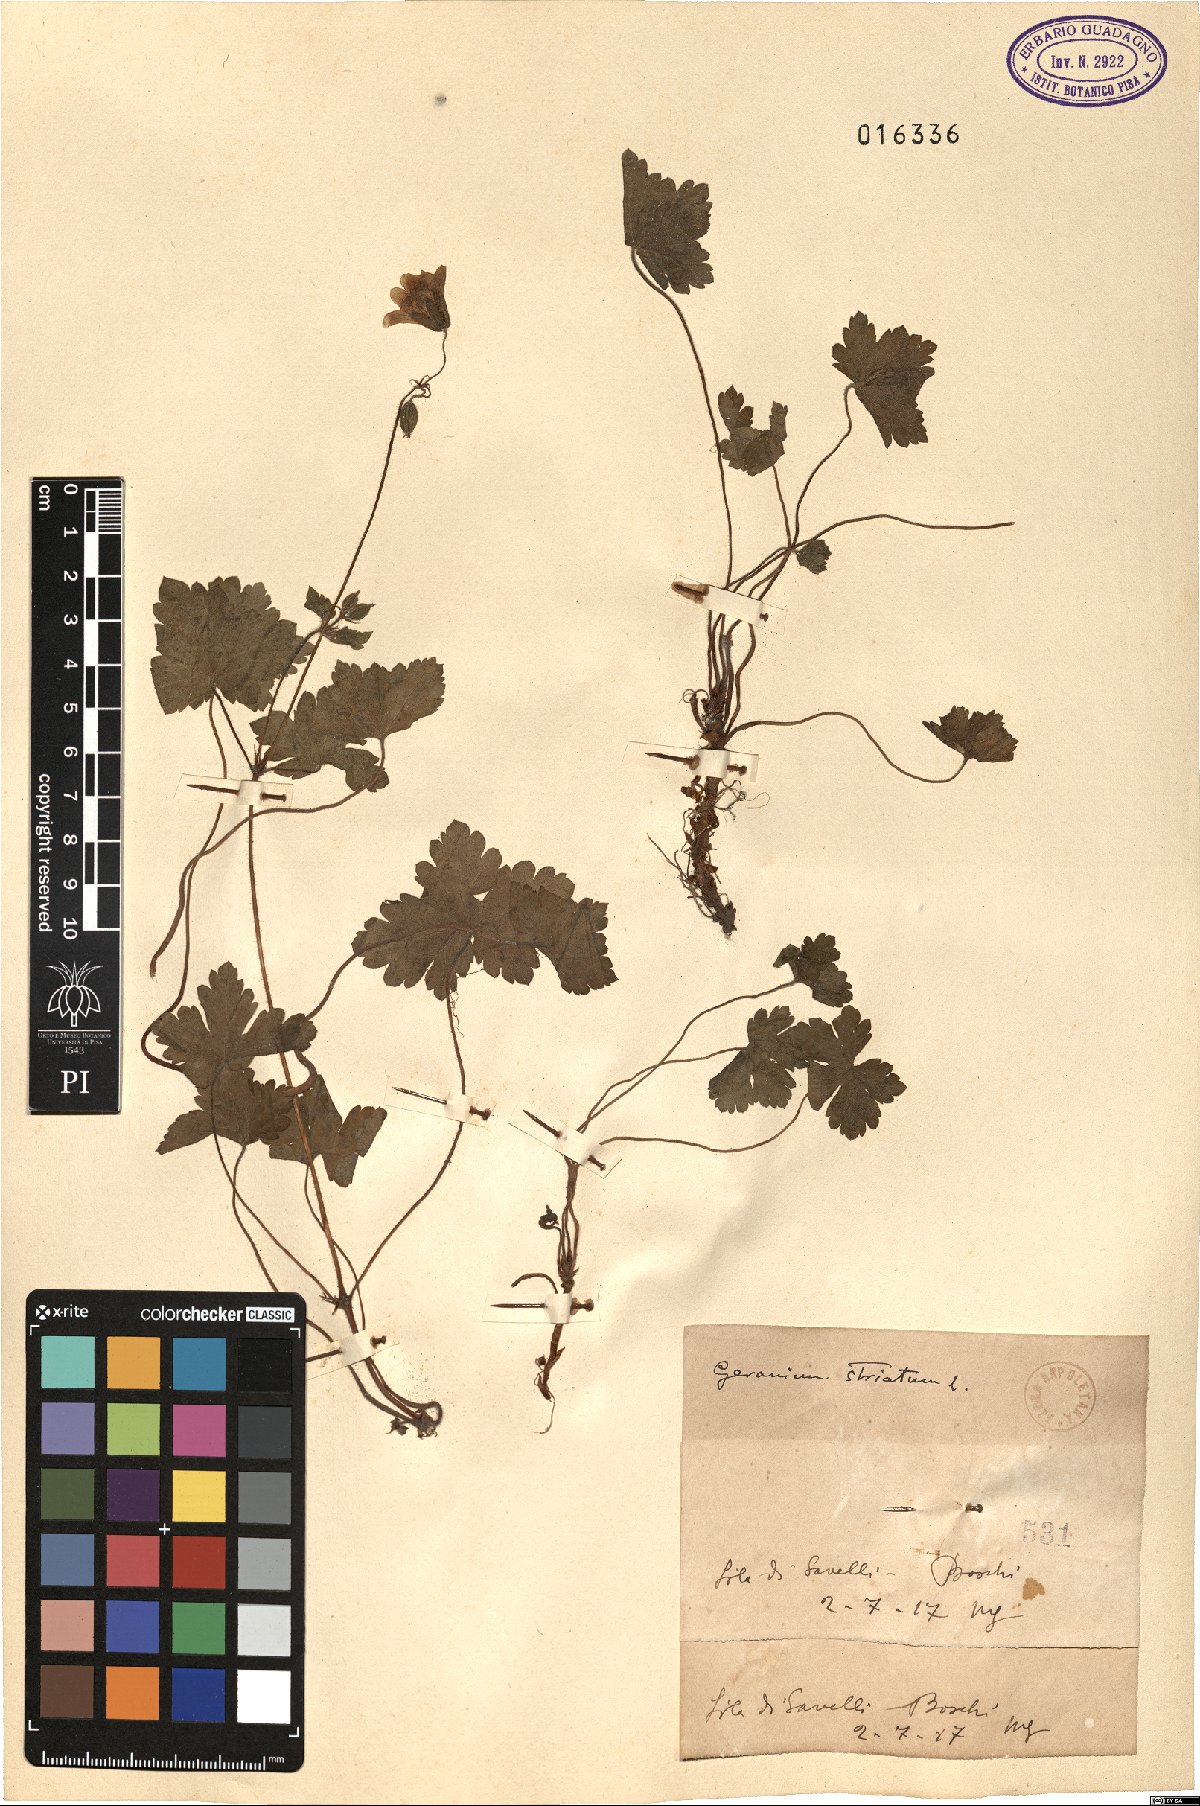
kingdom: Plantae
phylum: Tracheophyta
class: Magnoliopsida
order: Geraniales
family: Geraniaceae
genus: Geranium
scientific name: Geranium versicolor
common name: Pencilled crane's-bill
